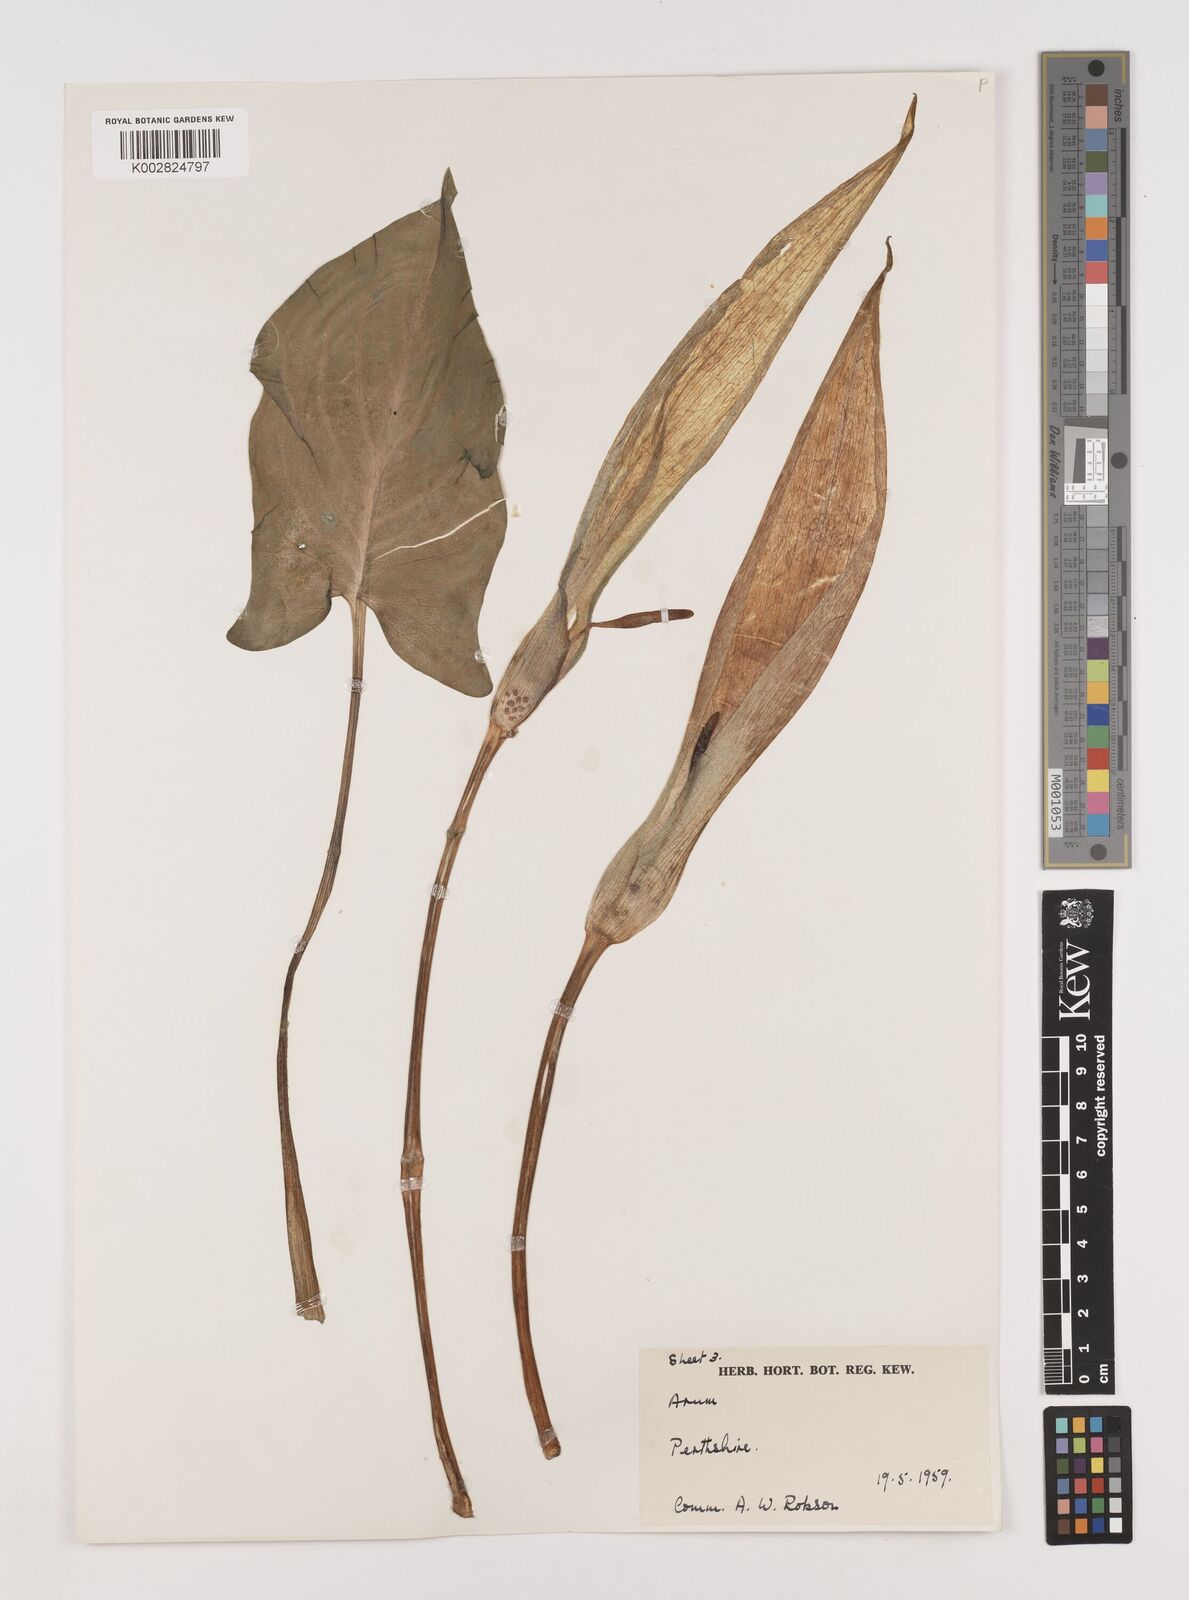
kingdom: Plantae
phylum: Tracheophyta
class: Liliopsida
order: Alismatales
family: Araceae
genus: Arum
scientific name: Arum maculatum
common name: Lords-and-ladies
